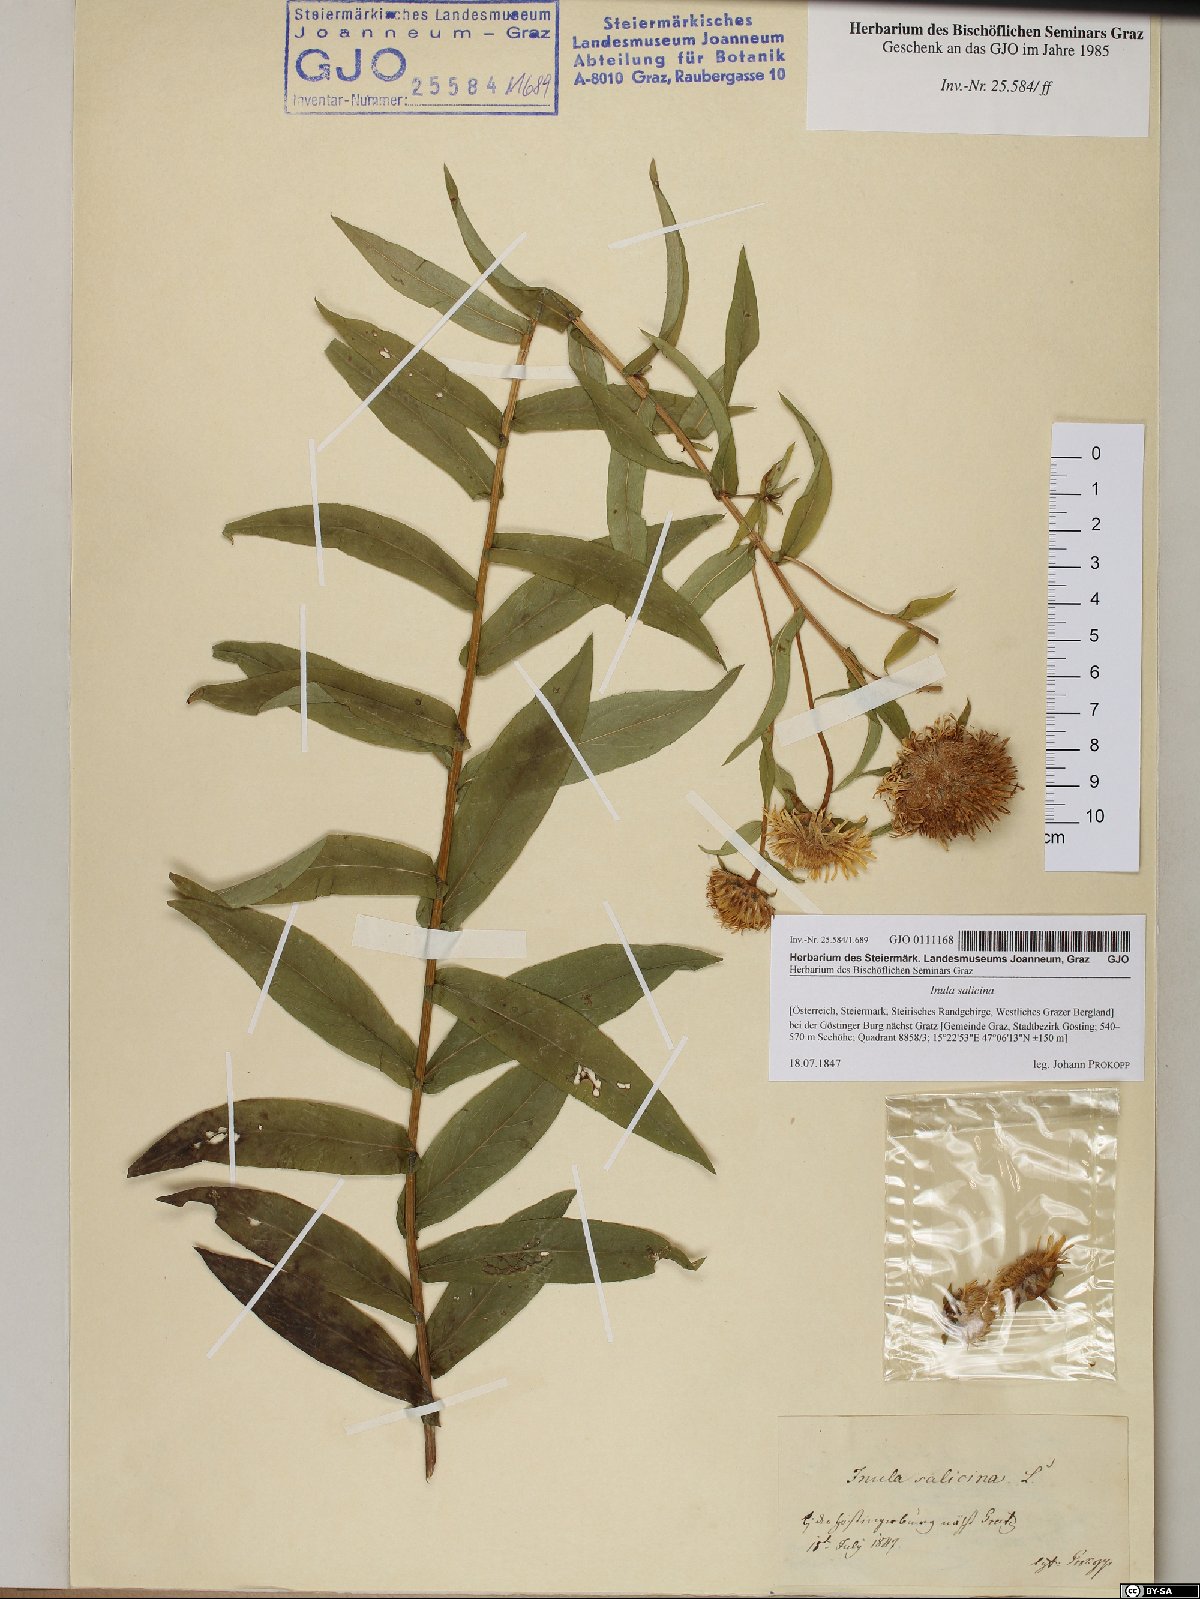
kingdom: Plantae
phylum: Tracheophyta
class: Magnoliopsida
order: Asterales
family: Asteraceae
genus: Pentanema
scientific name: Pentanema salicinum
